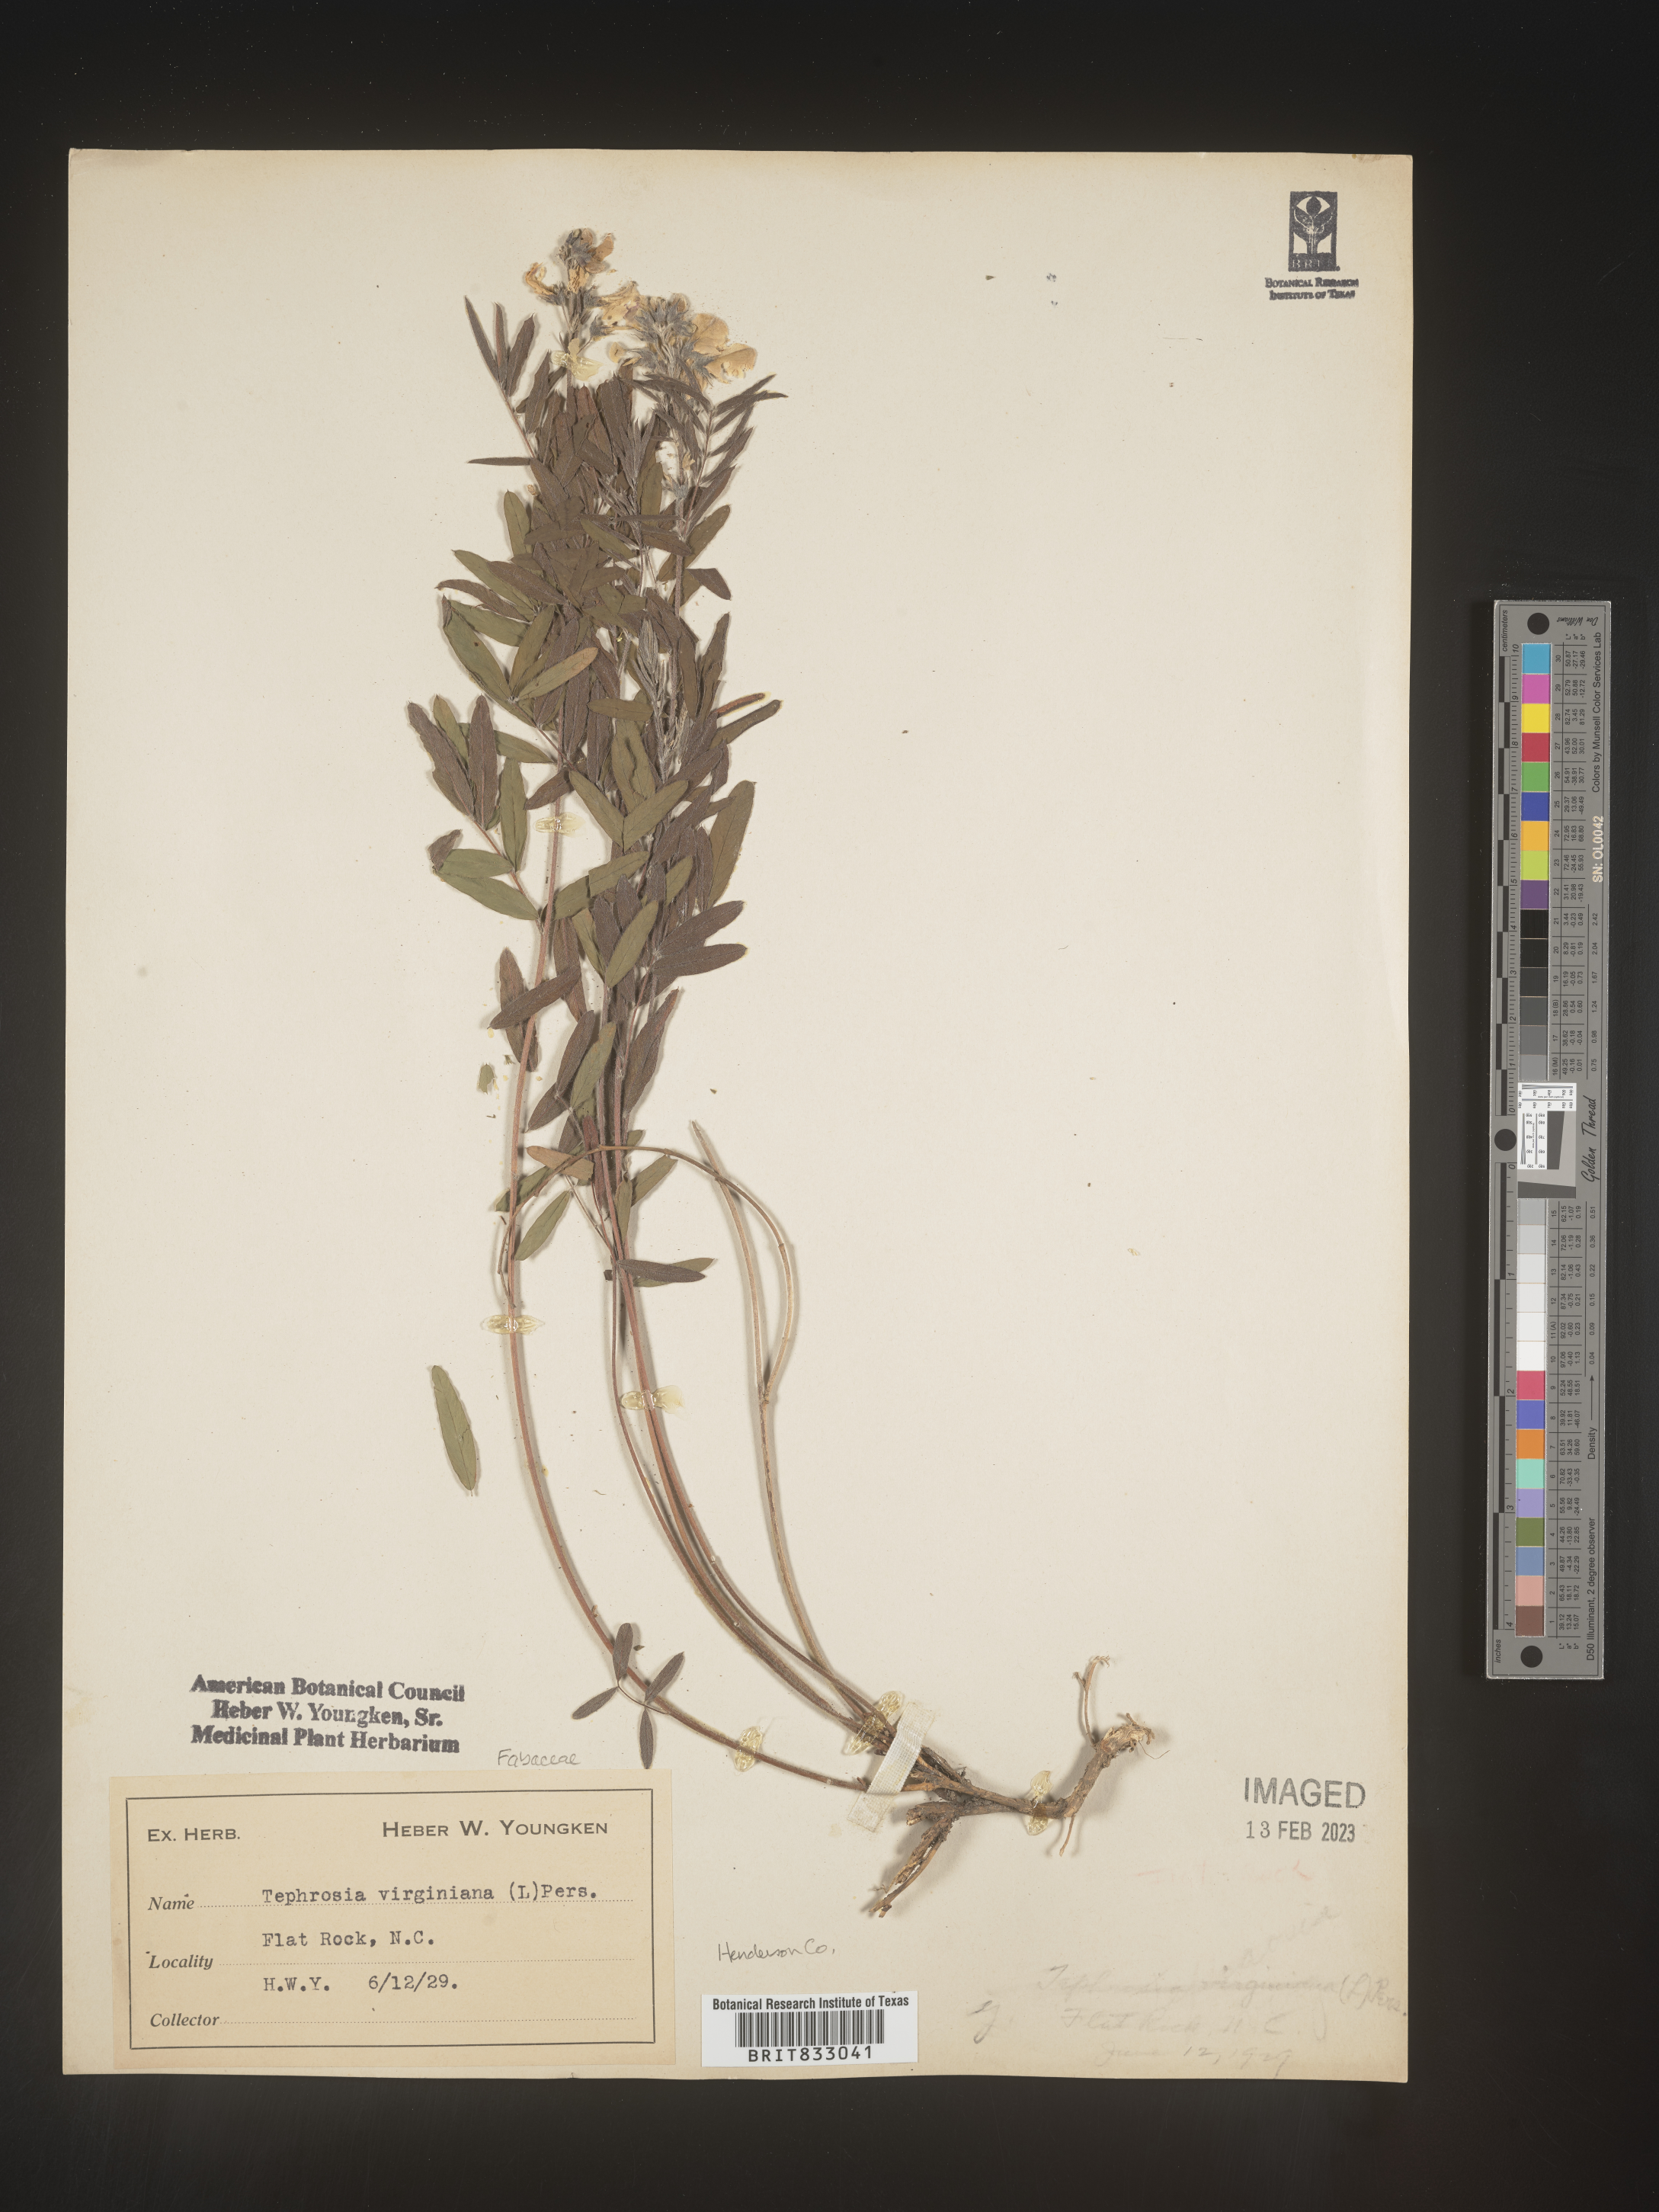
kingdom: Plantae
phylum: Tracheophyta
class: Magnoliopsida
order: Fabales
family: Fabaceae
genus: Tephrosia
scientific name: Tephrosia virginiana
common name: Rabbit-pea
